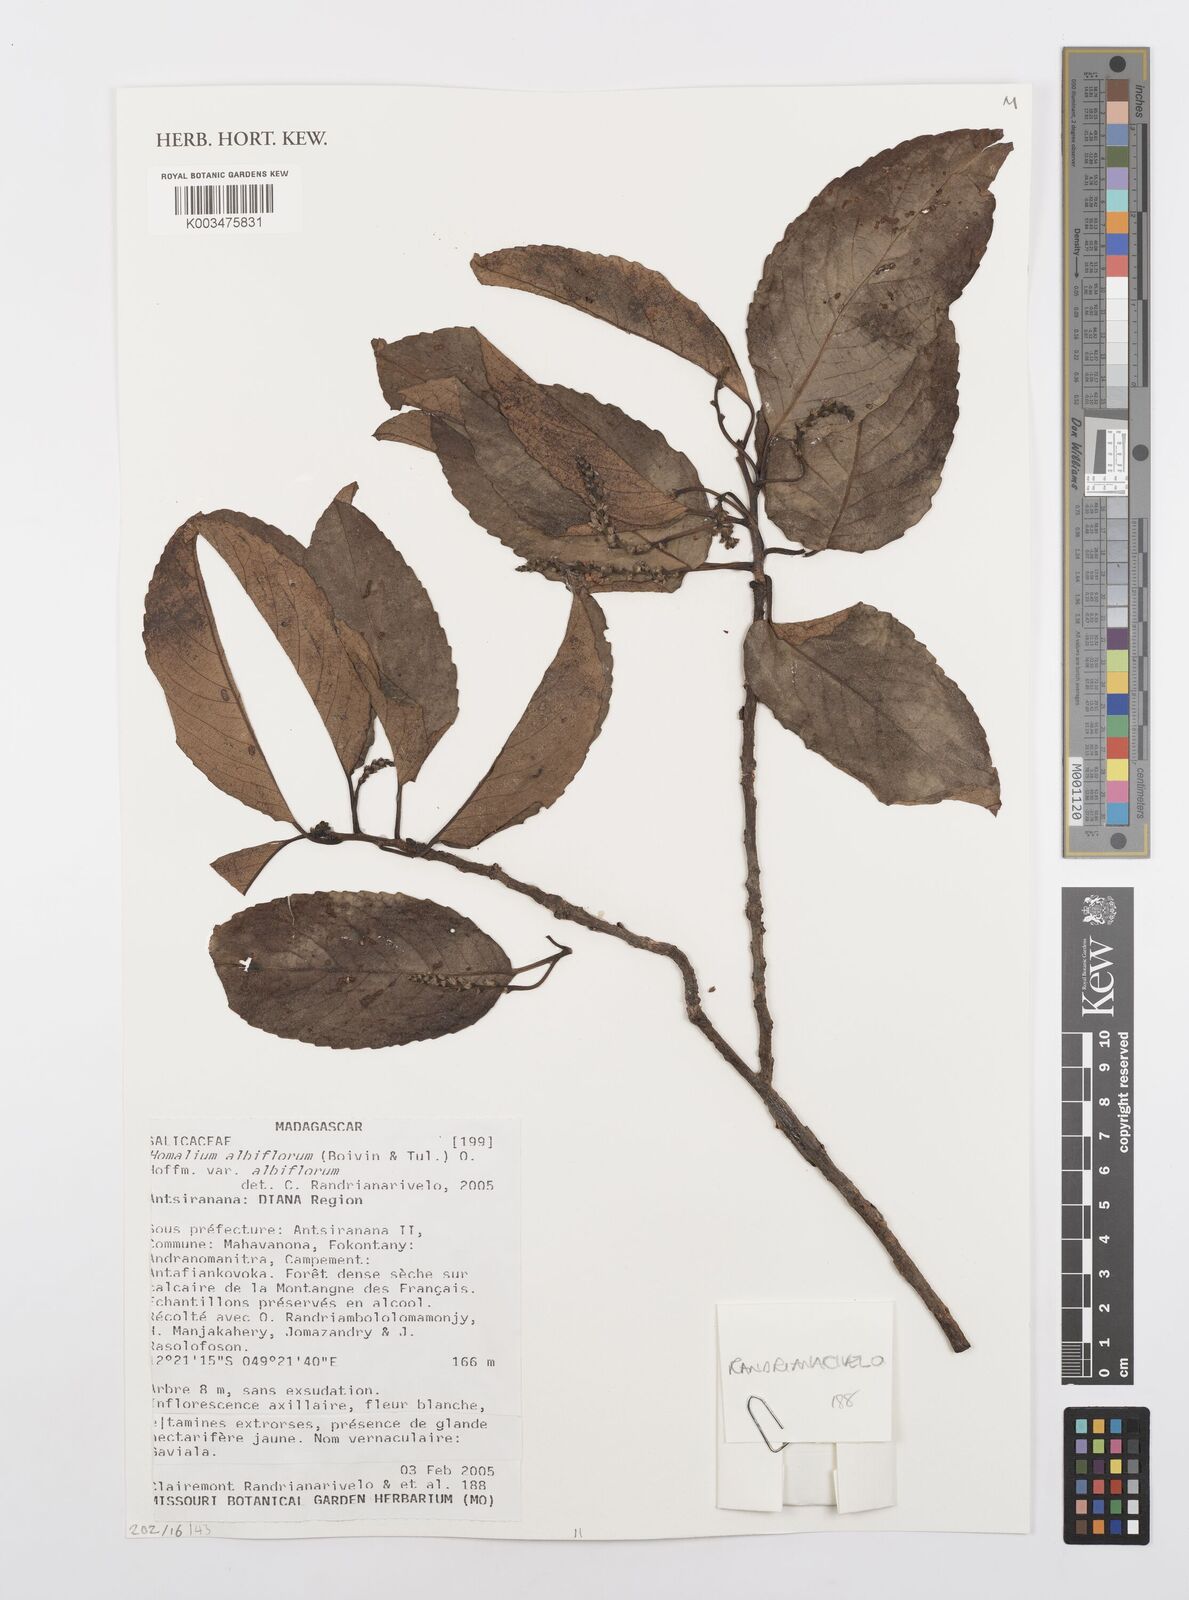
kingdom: Plantae
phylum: Tracheophyta
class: Magnoliopsida
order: Malpighiales
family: Salicaceae
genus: Homalium
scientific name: Homalium albiflorum
